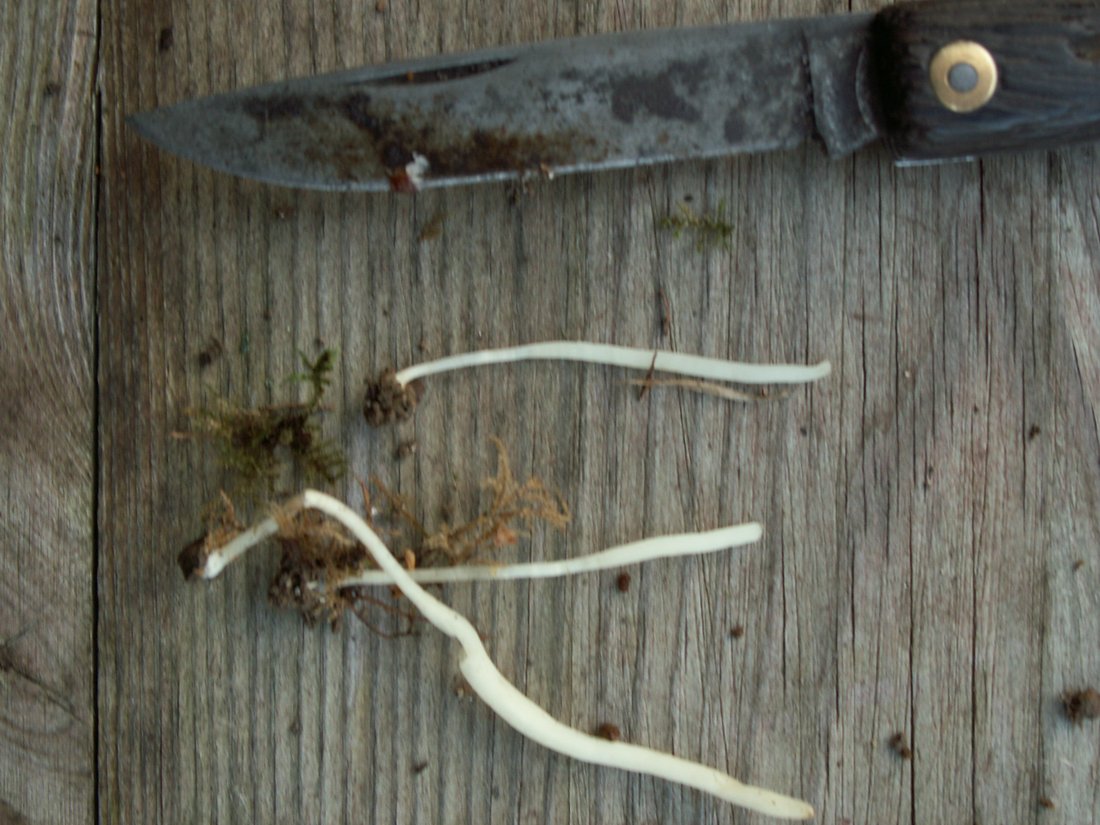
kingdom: Fungi
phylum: Basidiomycota
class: Agaricomycetes
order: Agaricales
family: Clavariaceae
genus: Clavaria
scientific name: Clavaria falcata
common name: hvid køllesvamp
